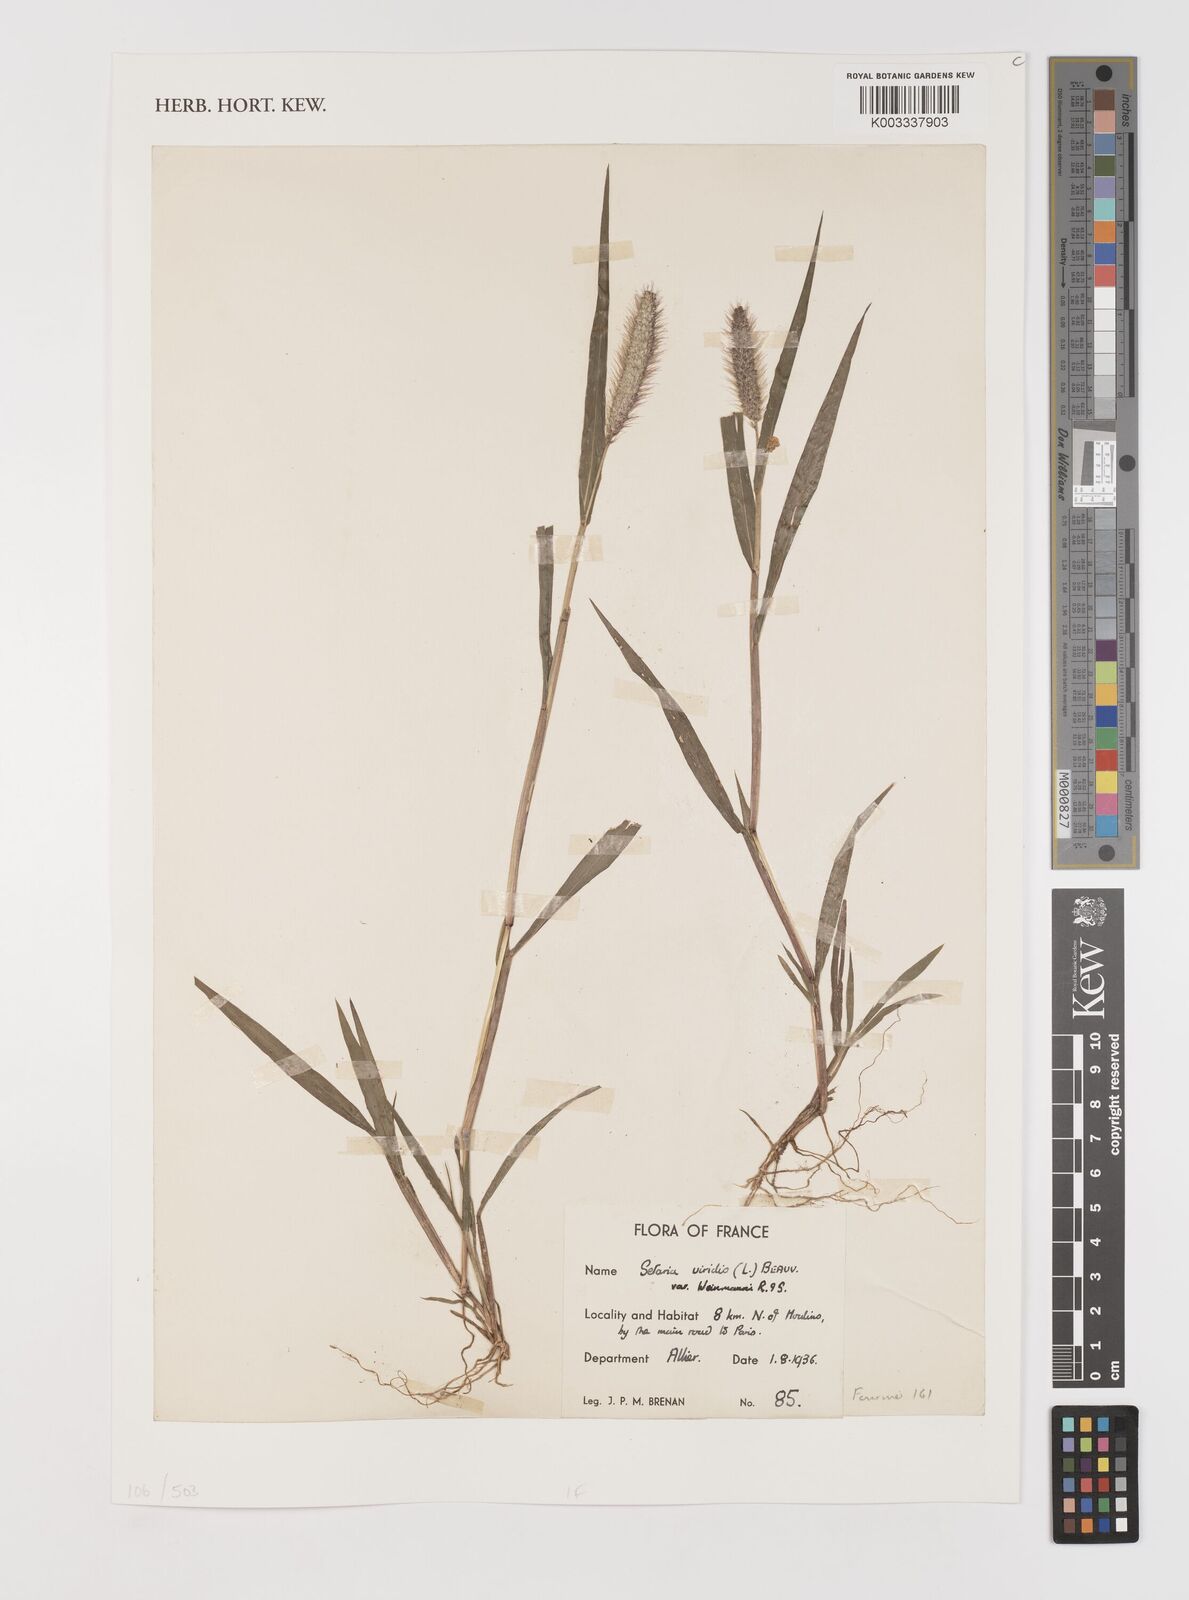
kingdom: Plantae
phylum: Tracheophyta
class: Liliopsida
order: Poales
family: Poaceae
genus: Setaria
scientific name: Setaria viridis
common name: Green bristlegrass
